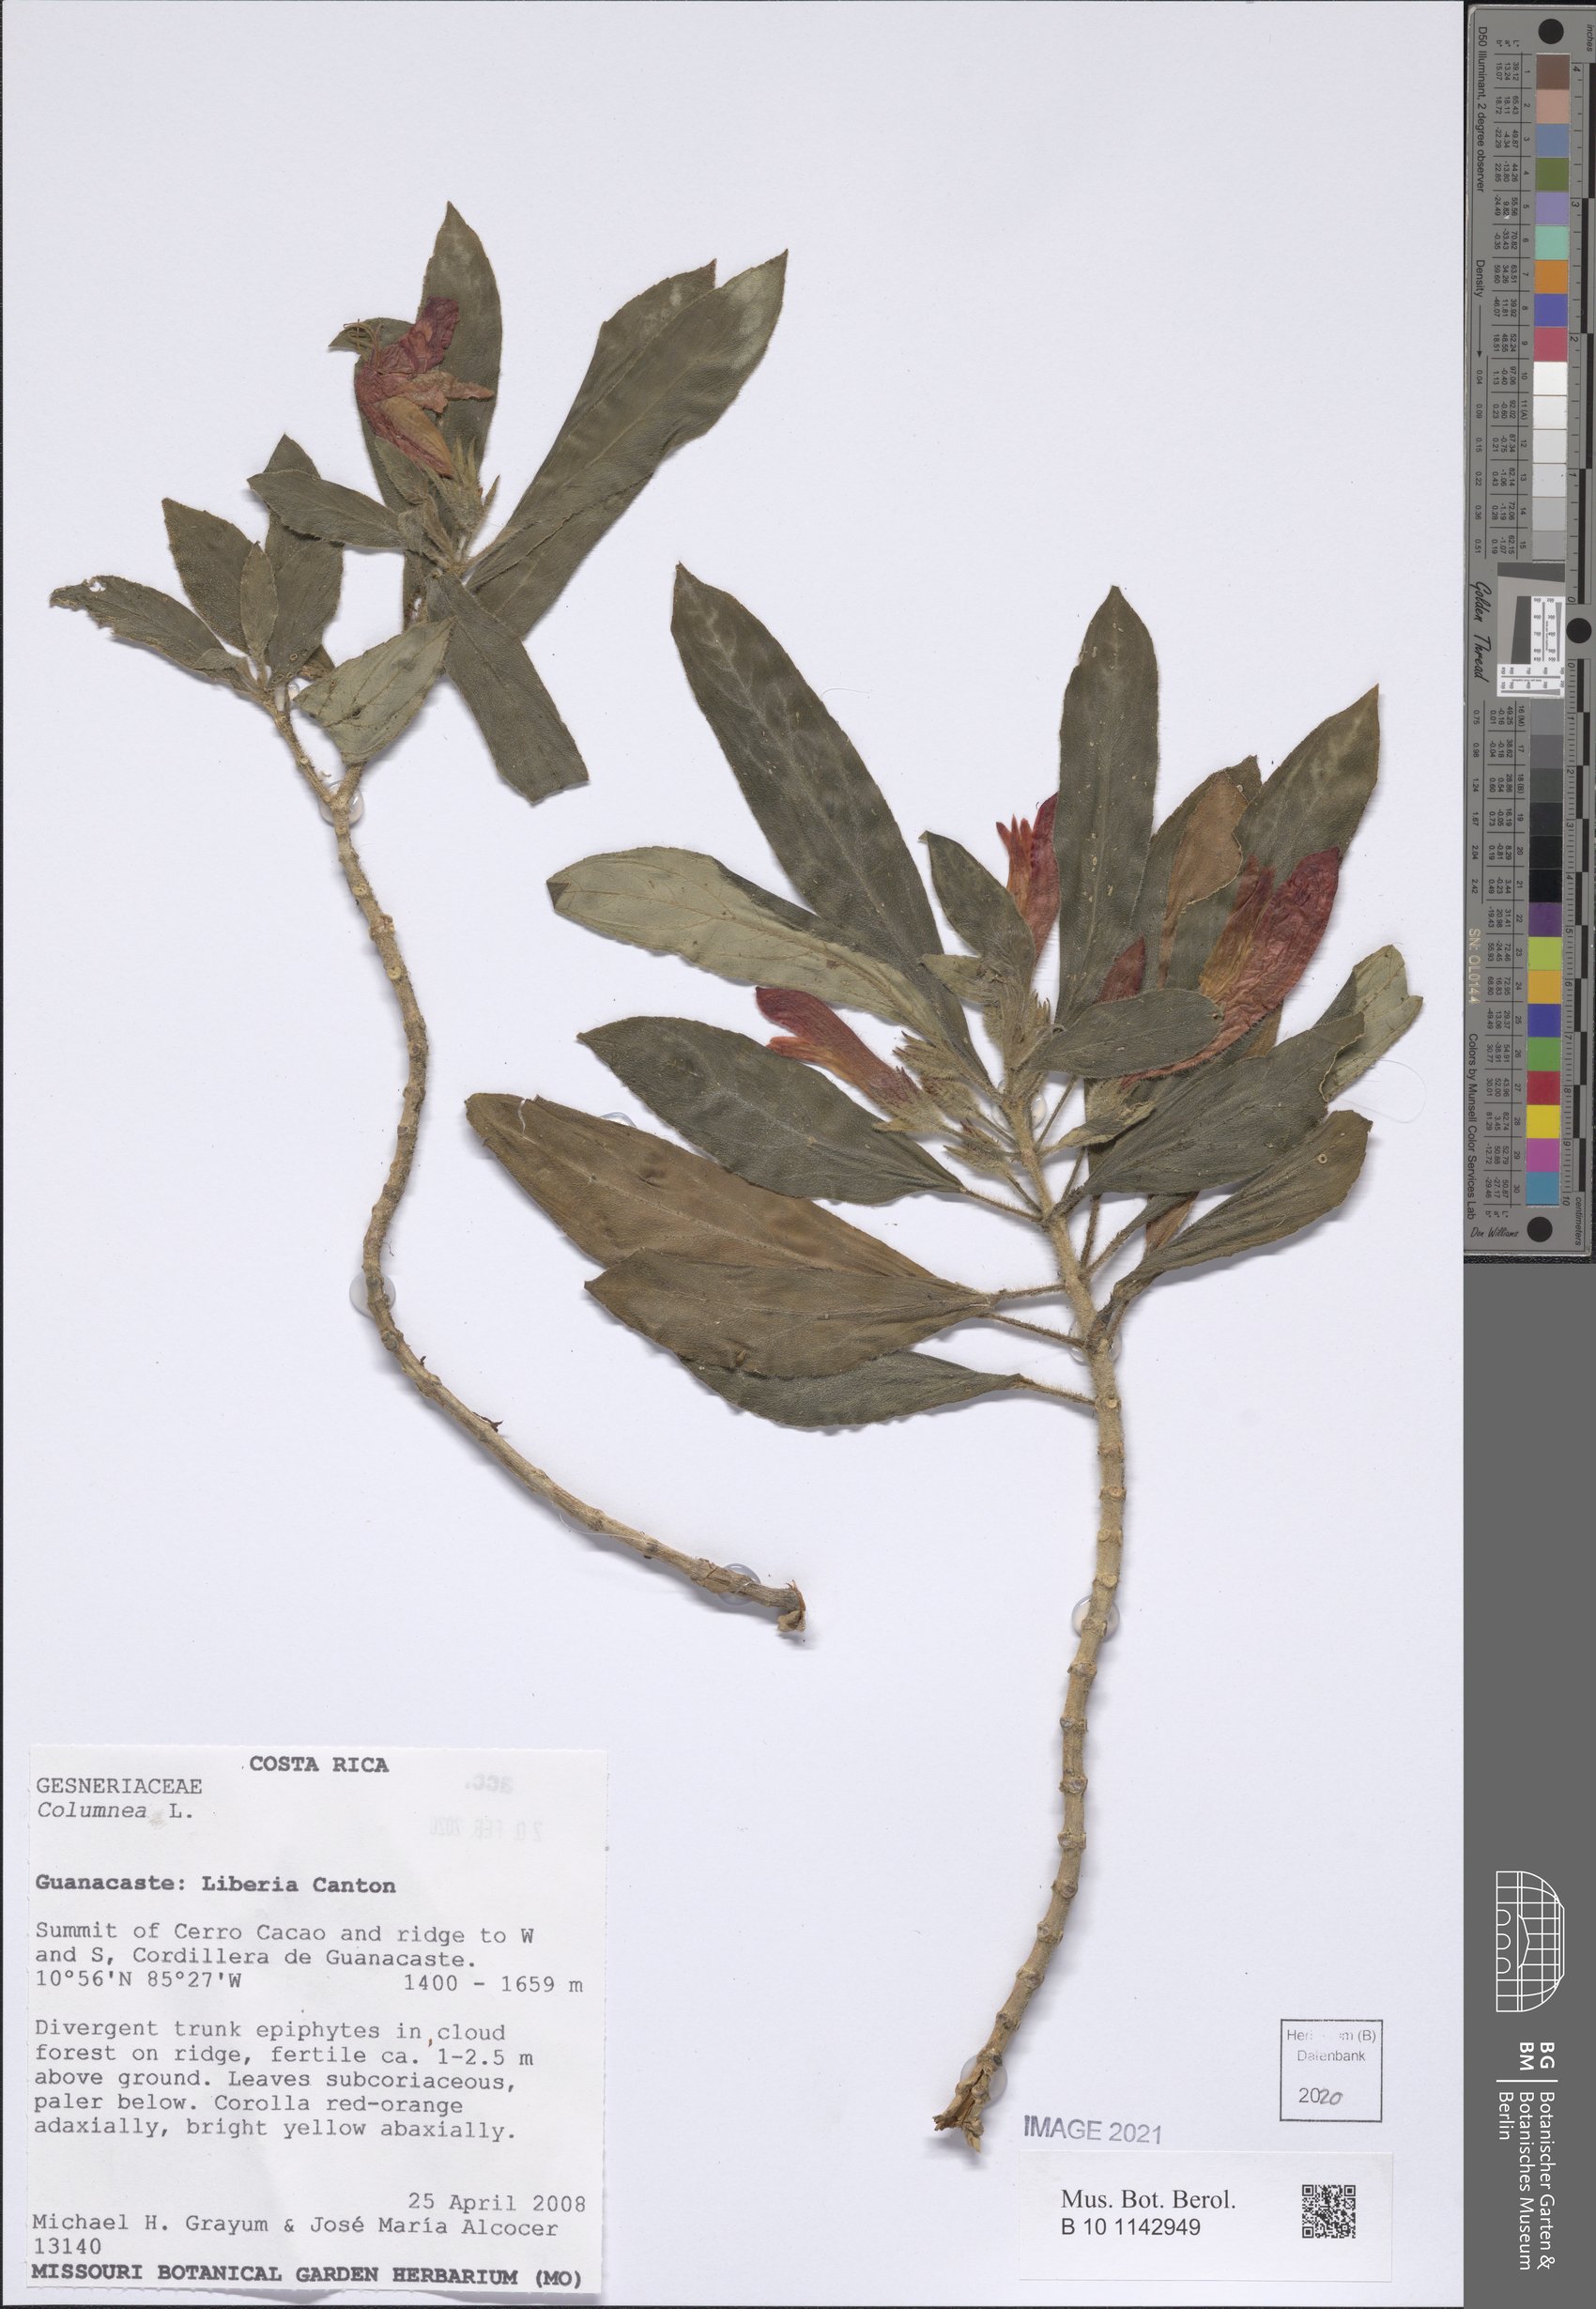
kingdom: Plantae
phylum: Tracheophyta
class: Magnoliopsida
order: Lamiales
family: Gesneriaceae
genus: Columnea
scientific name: Columnea
